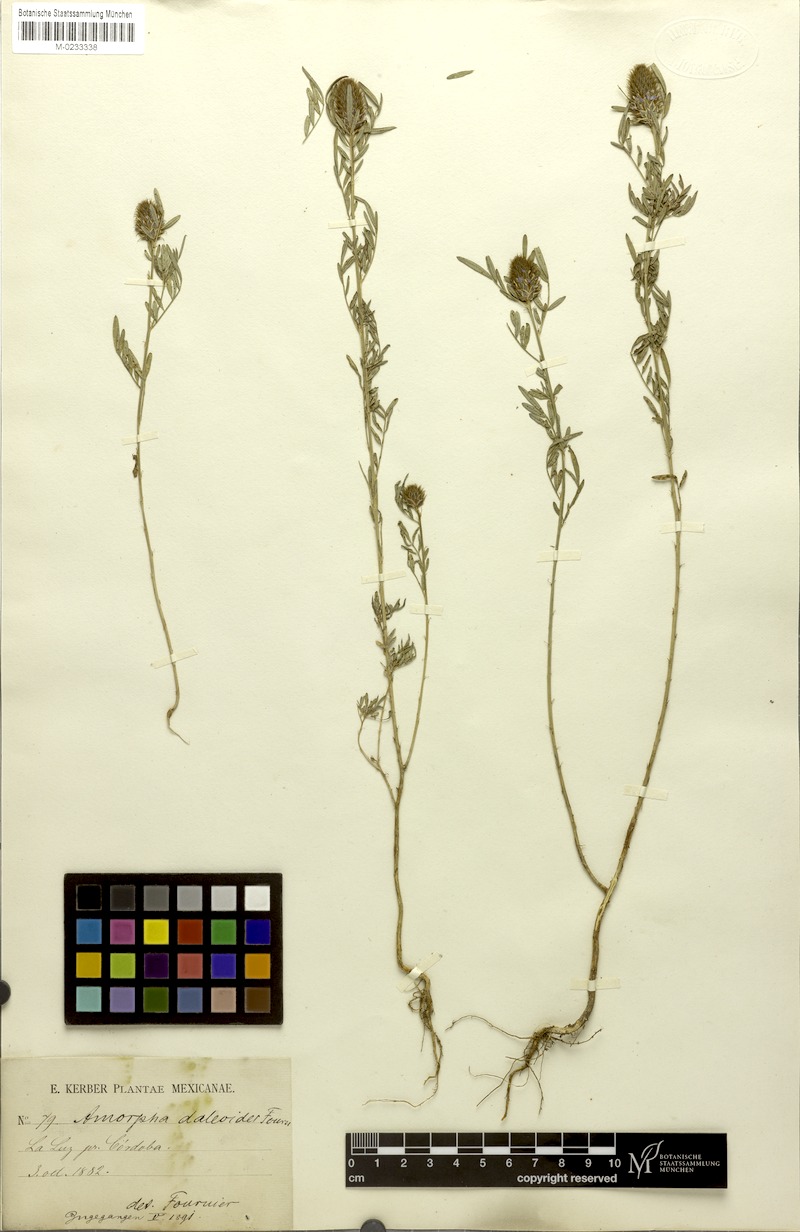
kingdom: Plantae
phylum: Tracheophyta
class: Magnoliopsida
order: Fabales
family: Fabaceae
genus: Amorpha
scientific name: Amorpha
